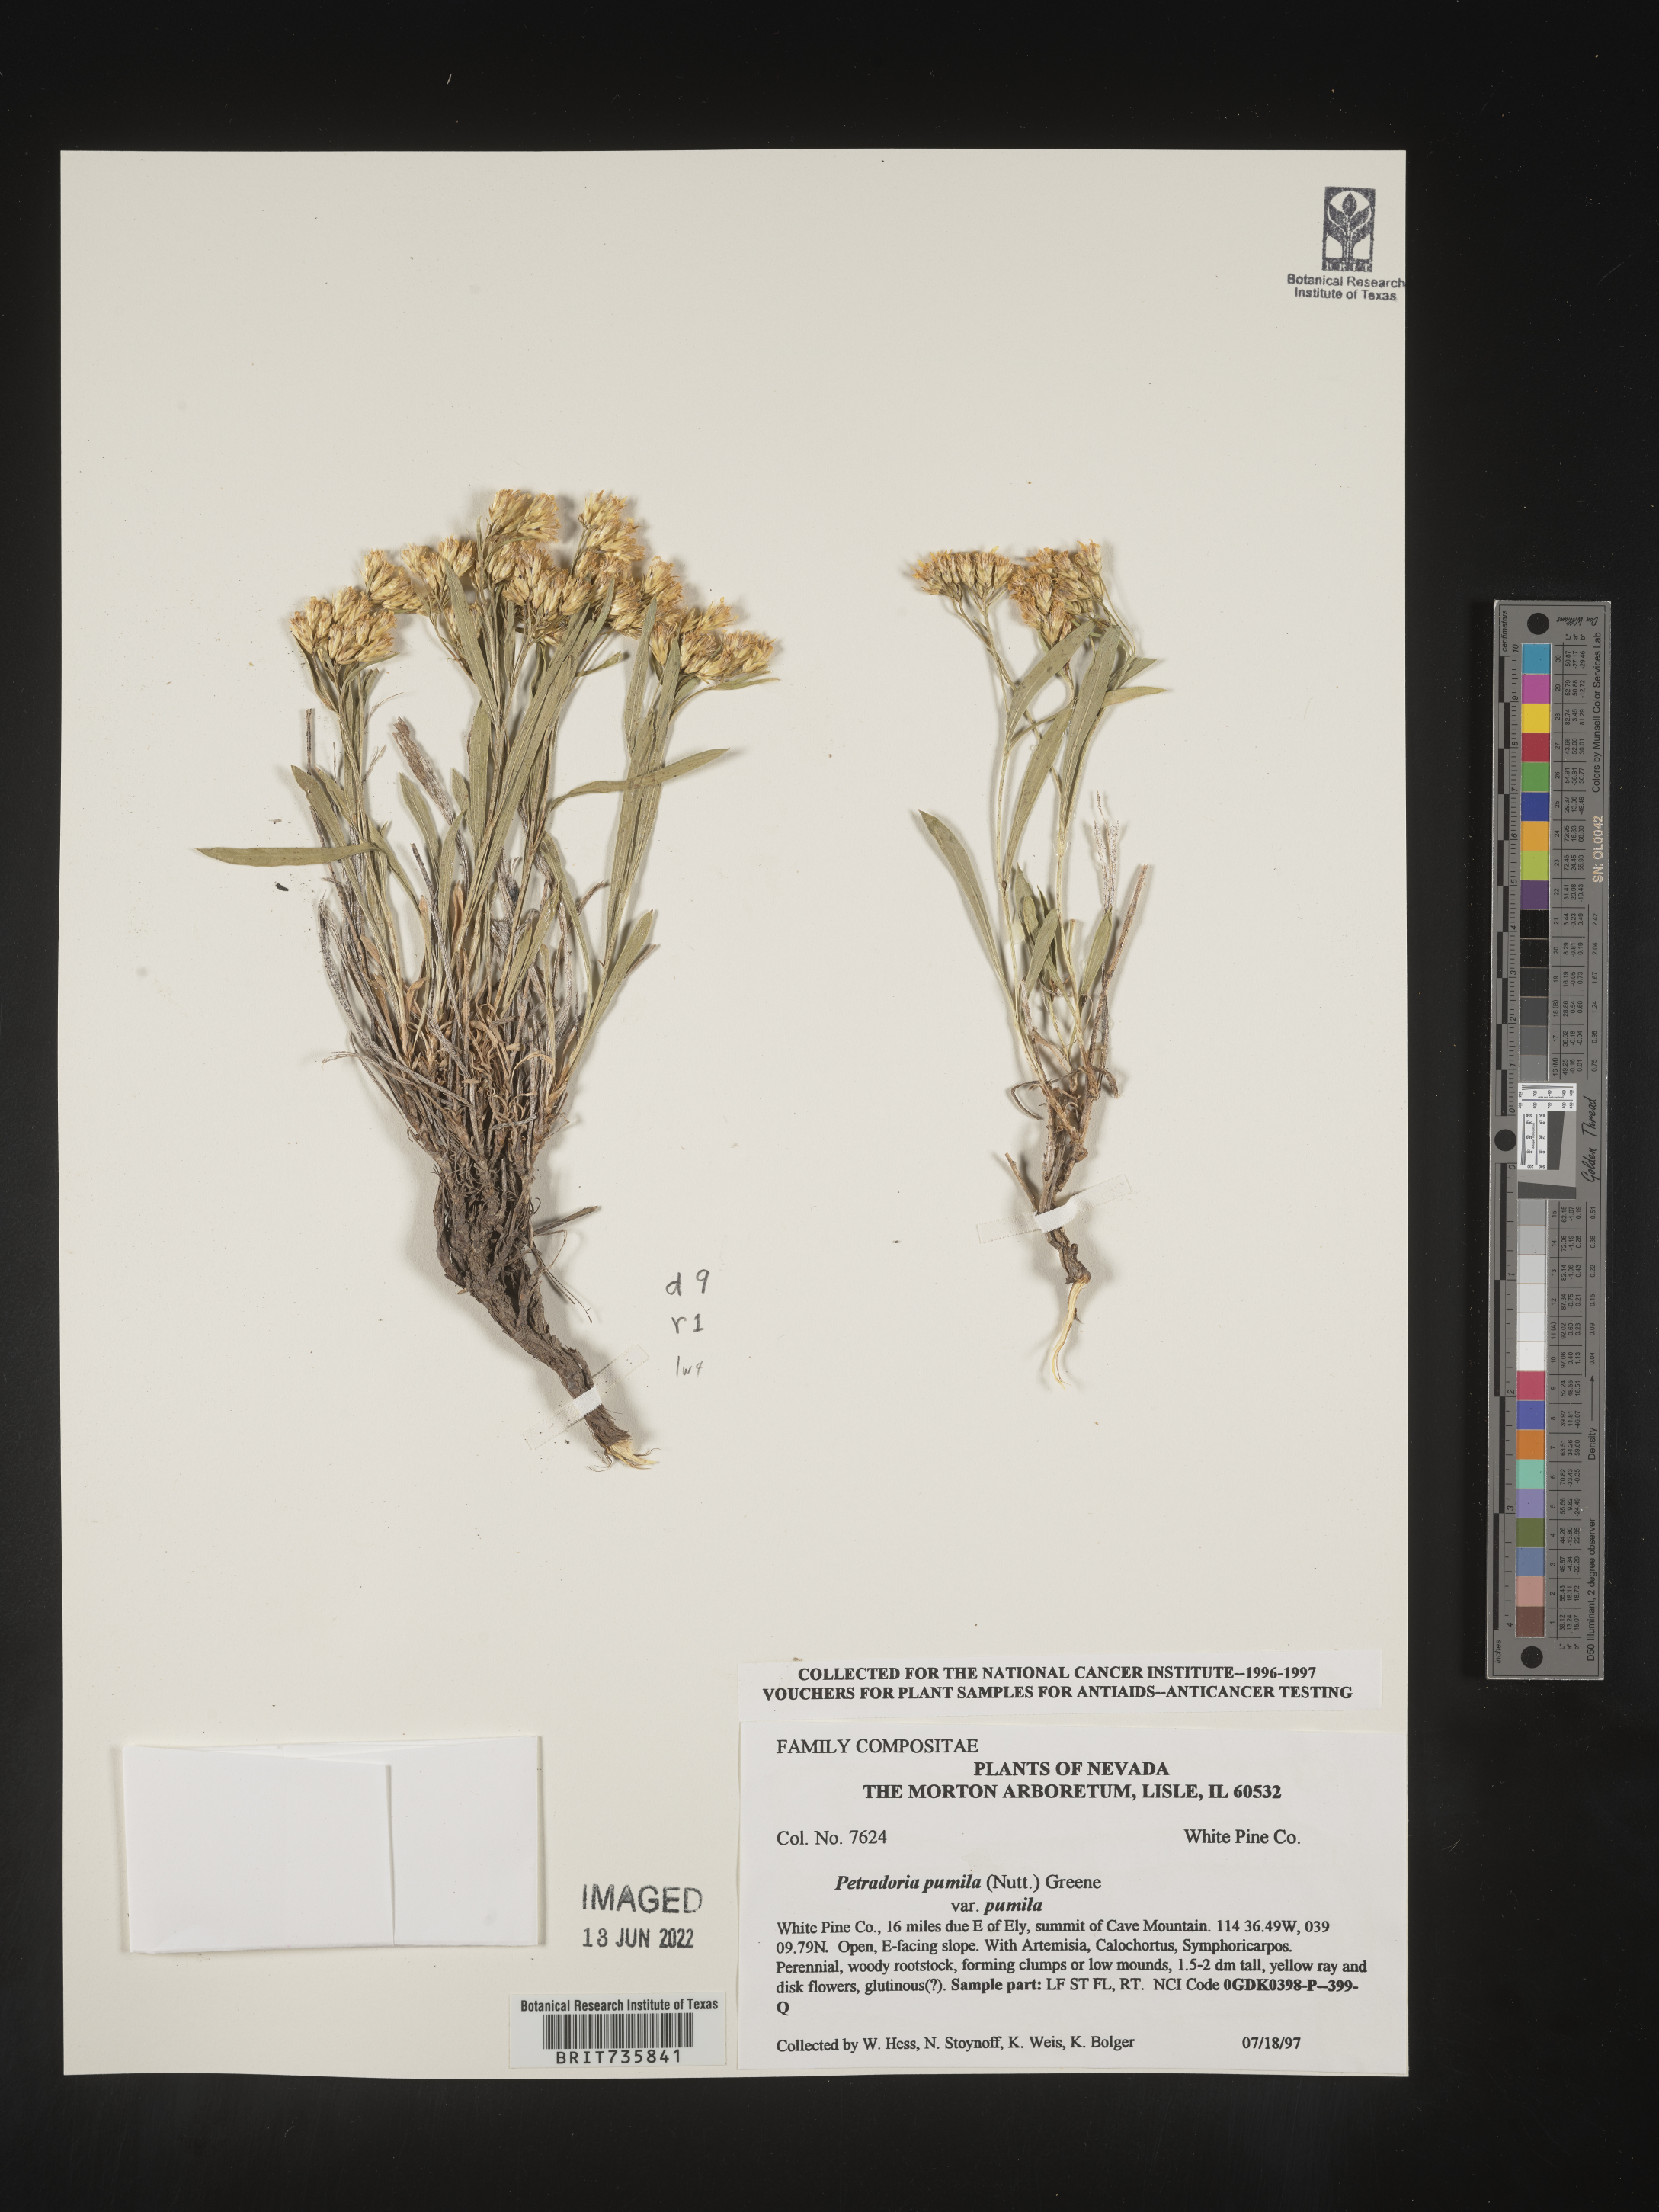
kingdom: Plantae
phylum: Tracheophyta
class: Magnoliopsida
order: Asterales
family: Asteraceae
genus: Petradoria
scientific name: Petradoria pumila
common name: Rock-goldenrod
